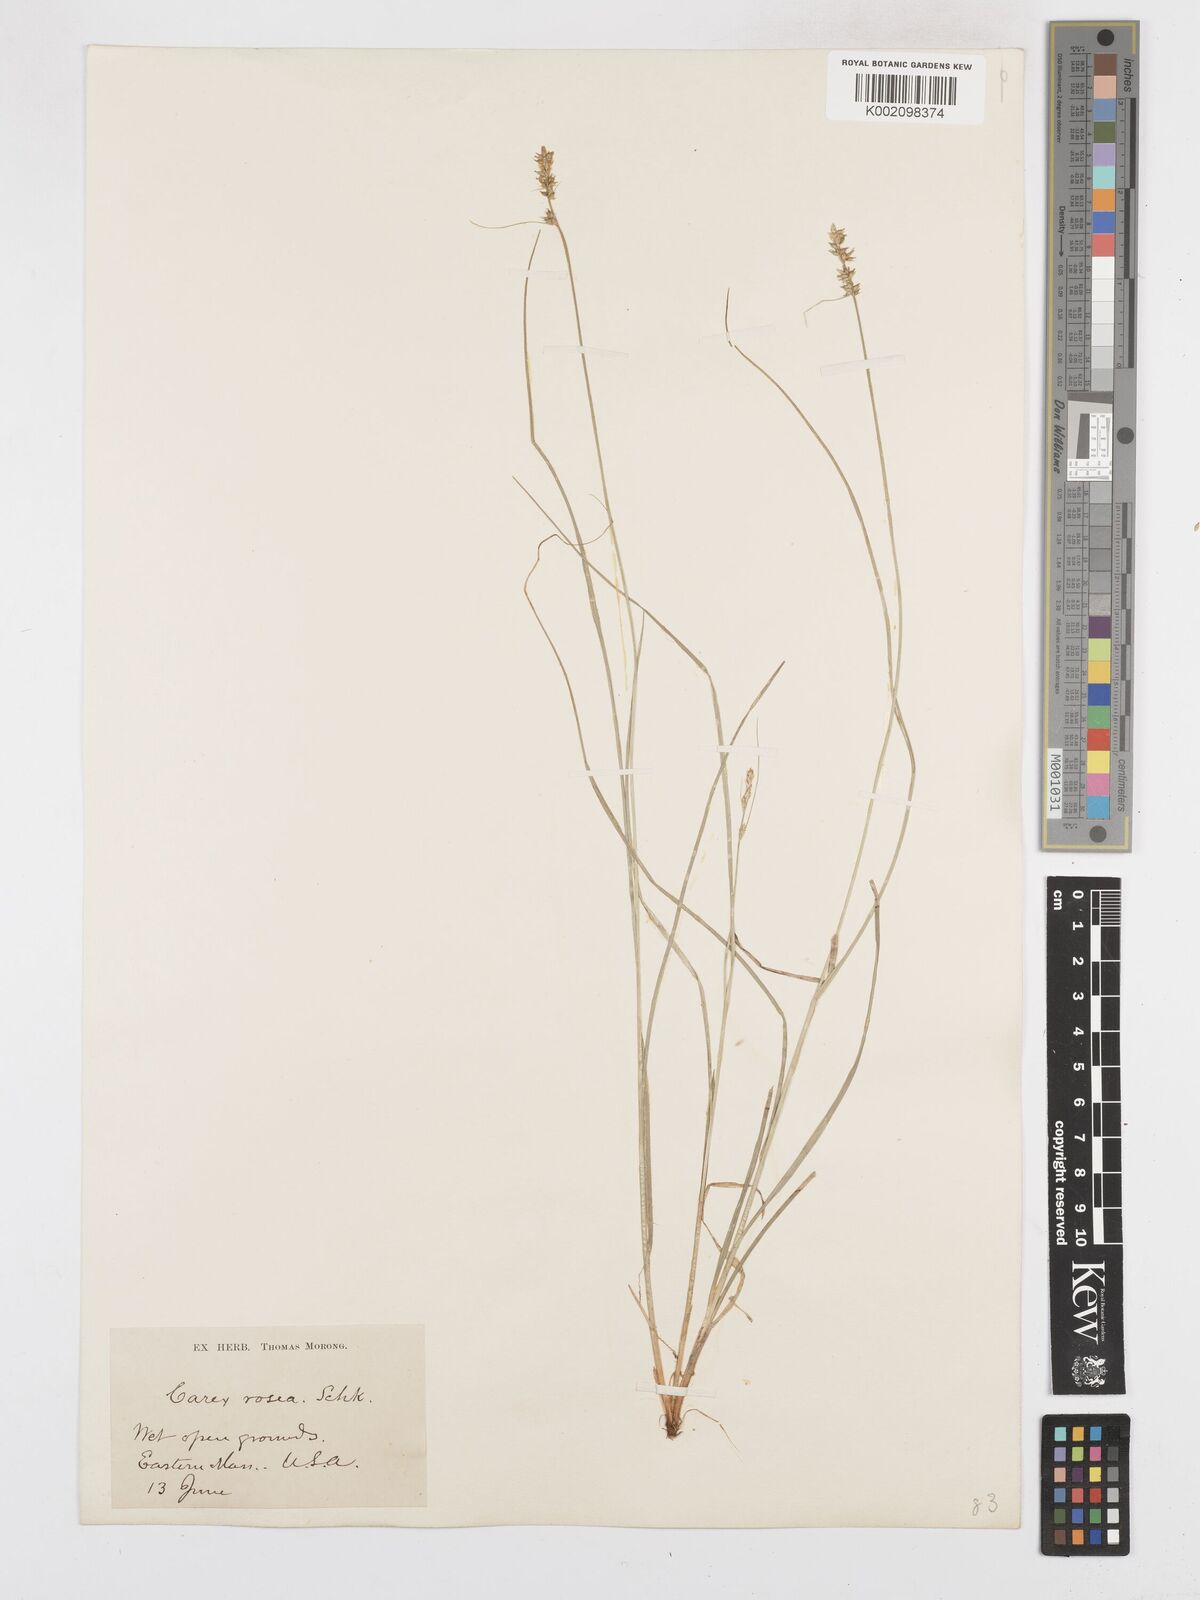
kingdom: Plantae
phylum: Tracheophyta
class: Liliopsida
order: Poales
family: Cyperaceae
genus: Carex
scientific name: Carex rosea
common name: Curly-styled wood sedge
